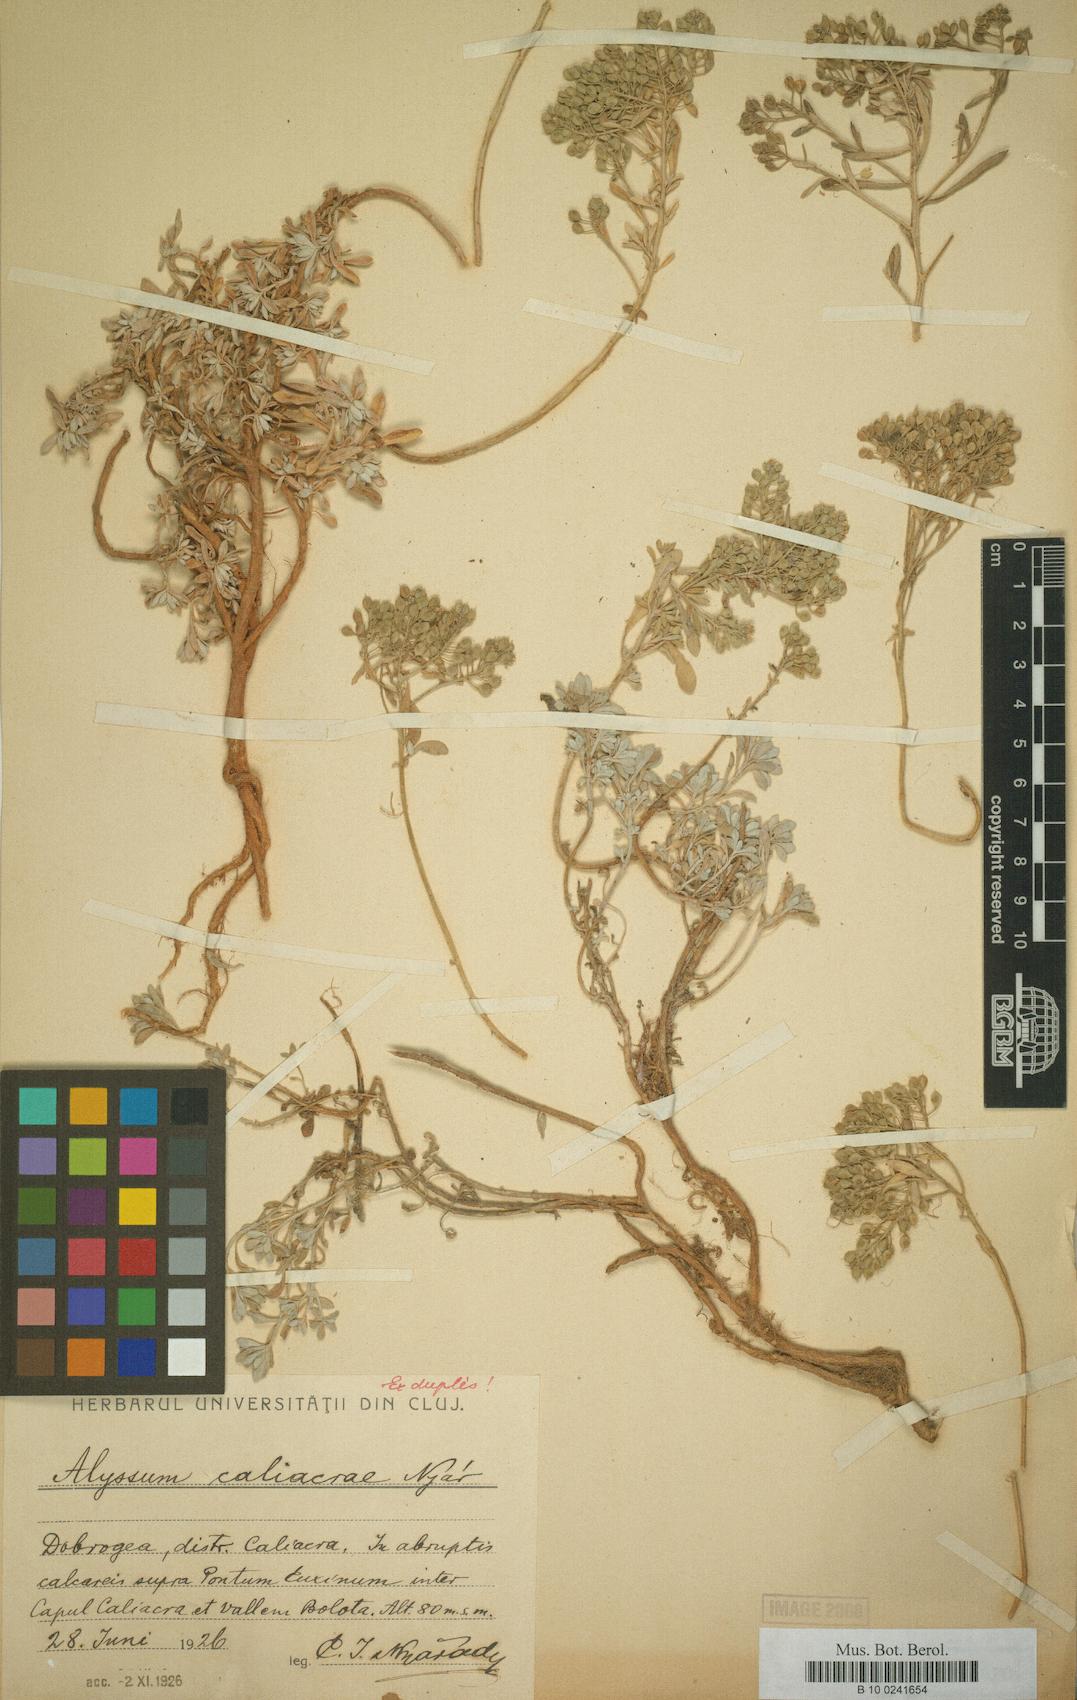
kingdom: Plantae
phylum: Tracheophyta
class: Magnoliopsida
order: Brassicales
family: Brassicaceae
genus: Odontarrhena
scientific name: Odontarrhena caliacrae
